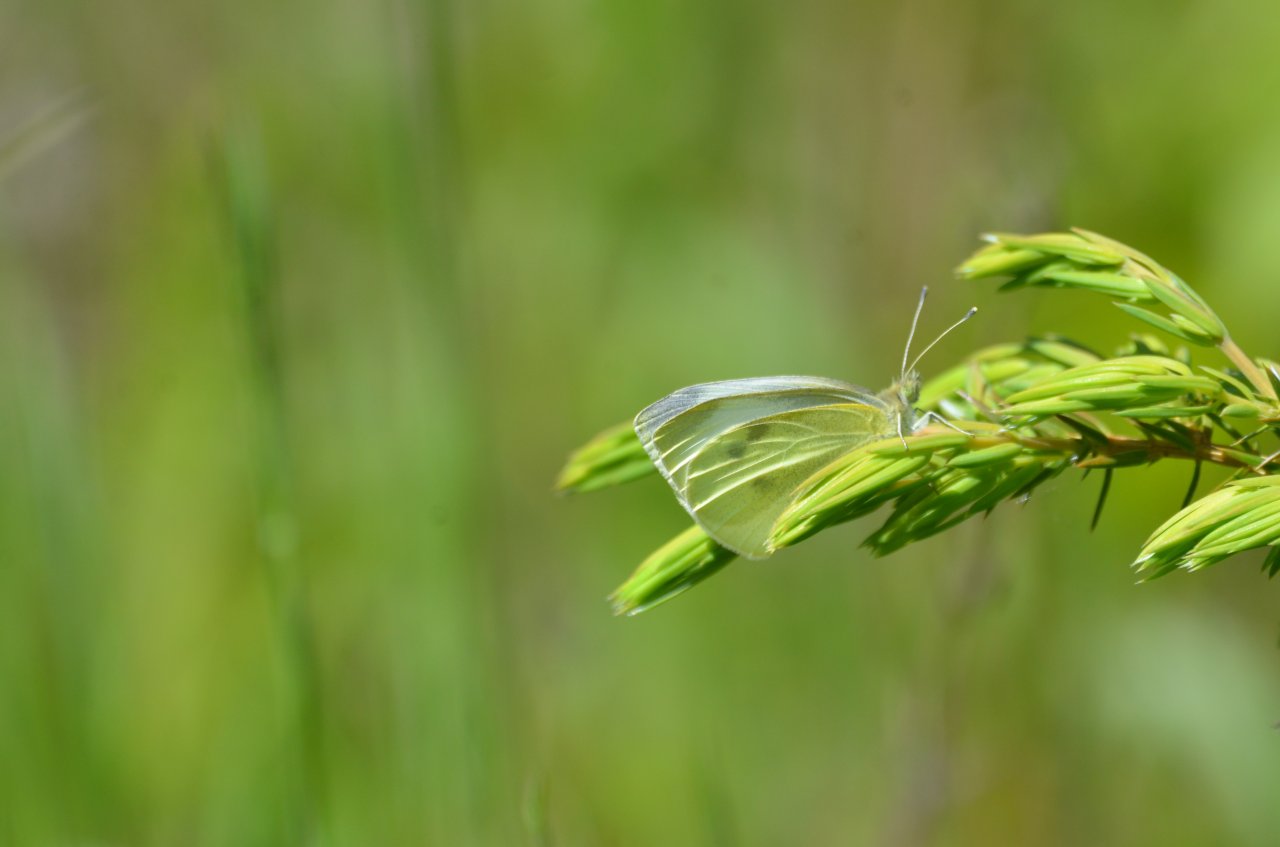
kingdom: Animalia
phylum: Arthropoda
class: Insecta
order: Lepidoptera
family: Pieridae
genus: Pieris
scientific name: Pieris rapae
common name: Cabbage White
